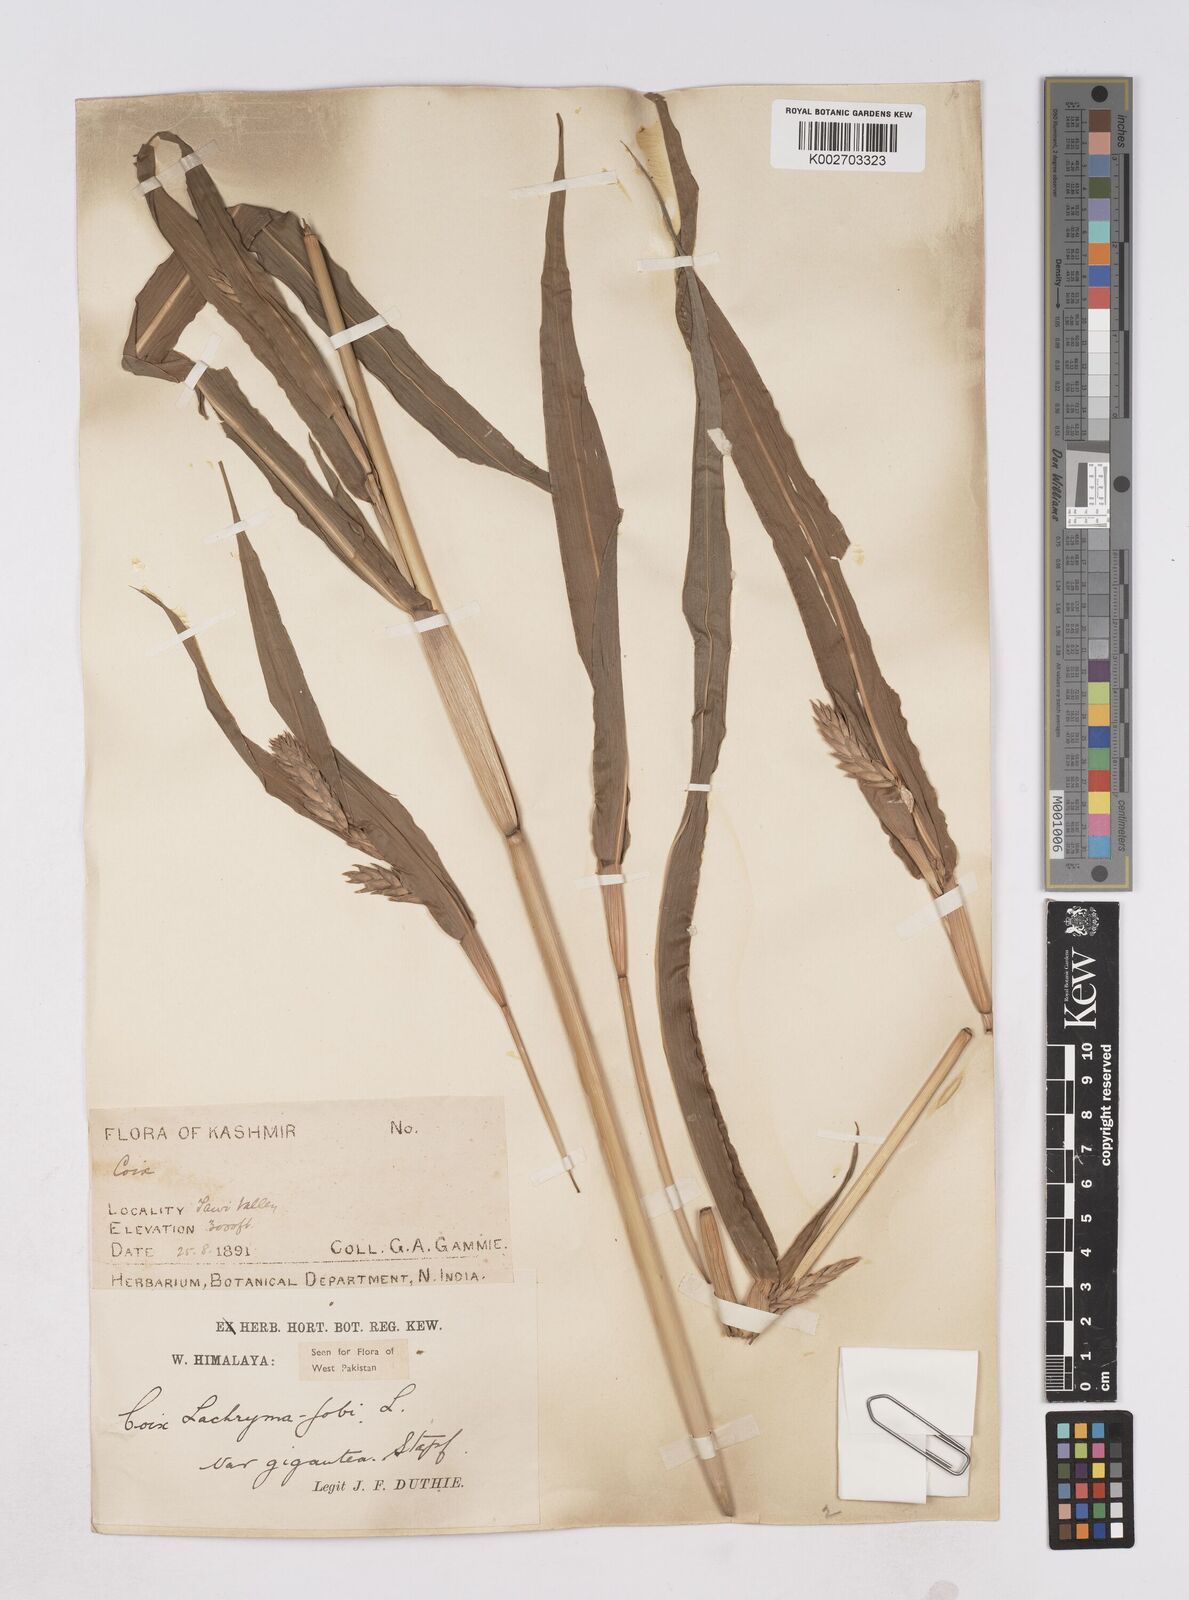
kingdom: Plantae
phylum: Tracheophyta
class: Liliopsida
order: Poales
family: Poaceae
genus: Coix
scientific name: Coix lacryma-jobi
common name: Job's tears
